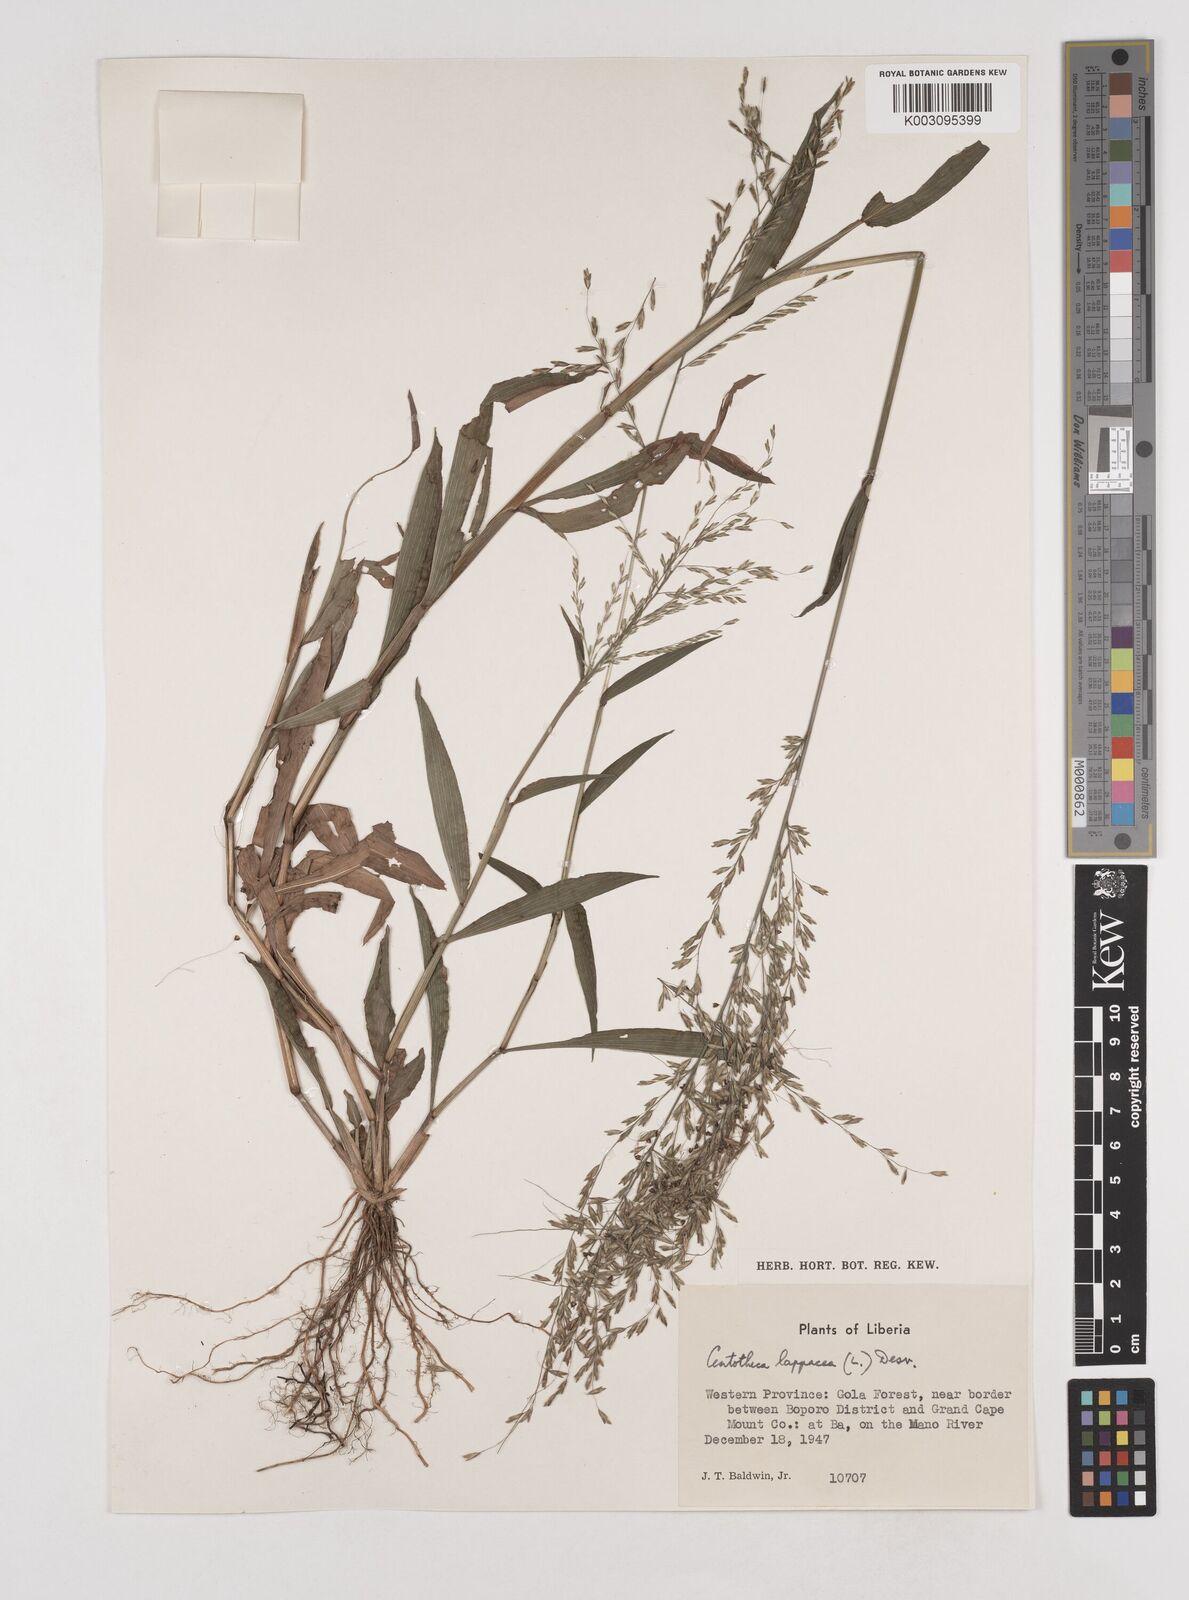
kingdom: Plantae
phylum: Tracheophyta
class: Liliopsida
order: Poales
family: Poaceae
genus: Centotheca
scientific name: Centotheca lappacea
